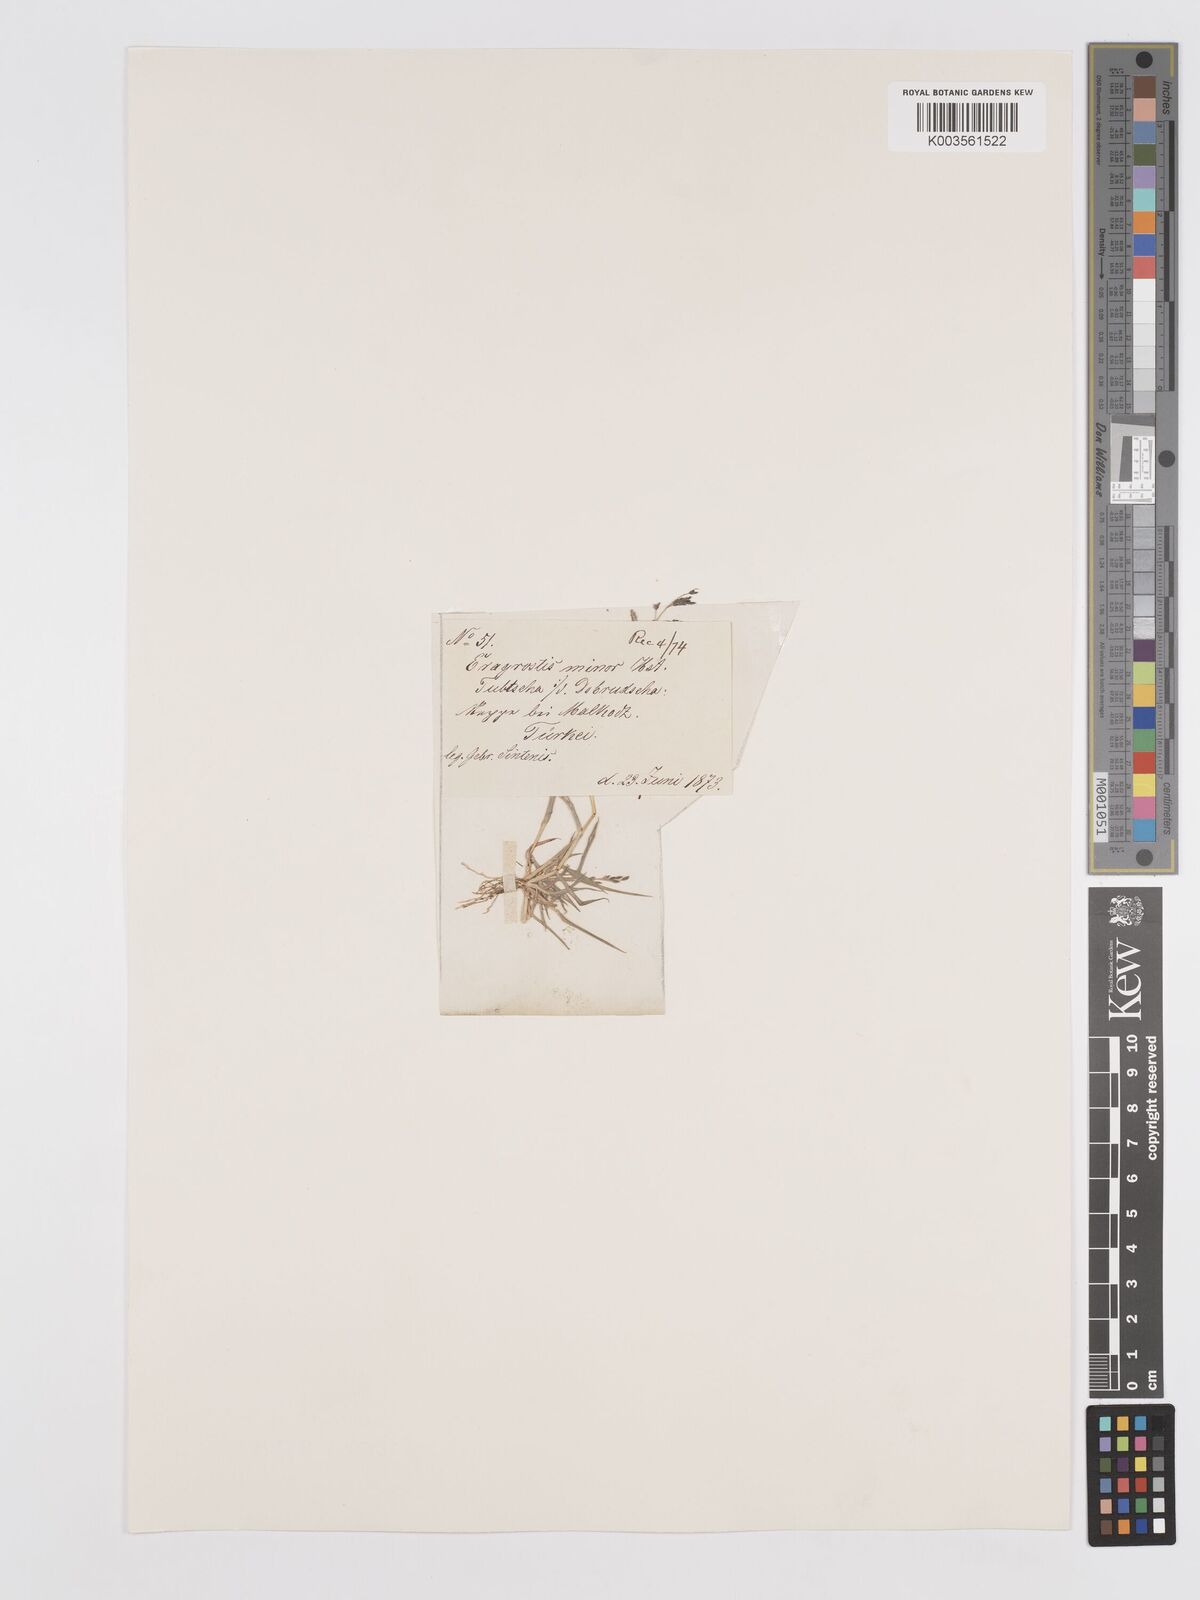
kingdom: Plantae
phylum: Tracheophyta
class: Liliopsida
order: Poales
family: Poaceae
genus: Eragrostis
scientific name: Eragrostis minor
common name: Small love-grass
